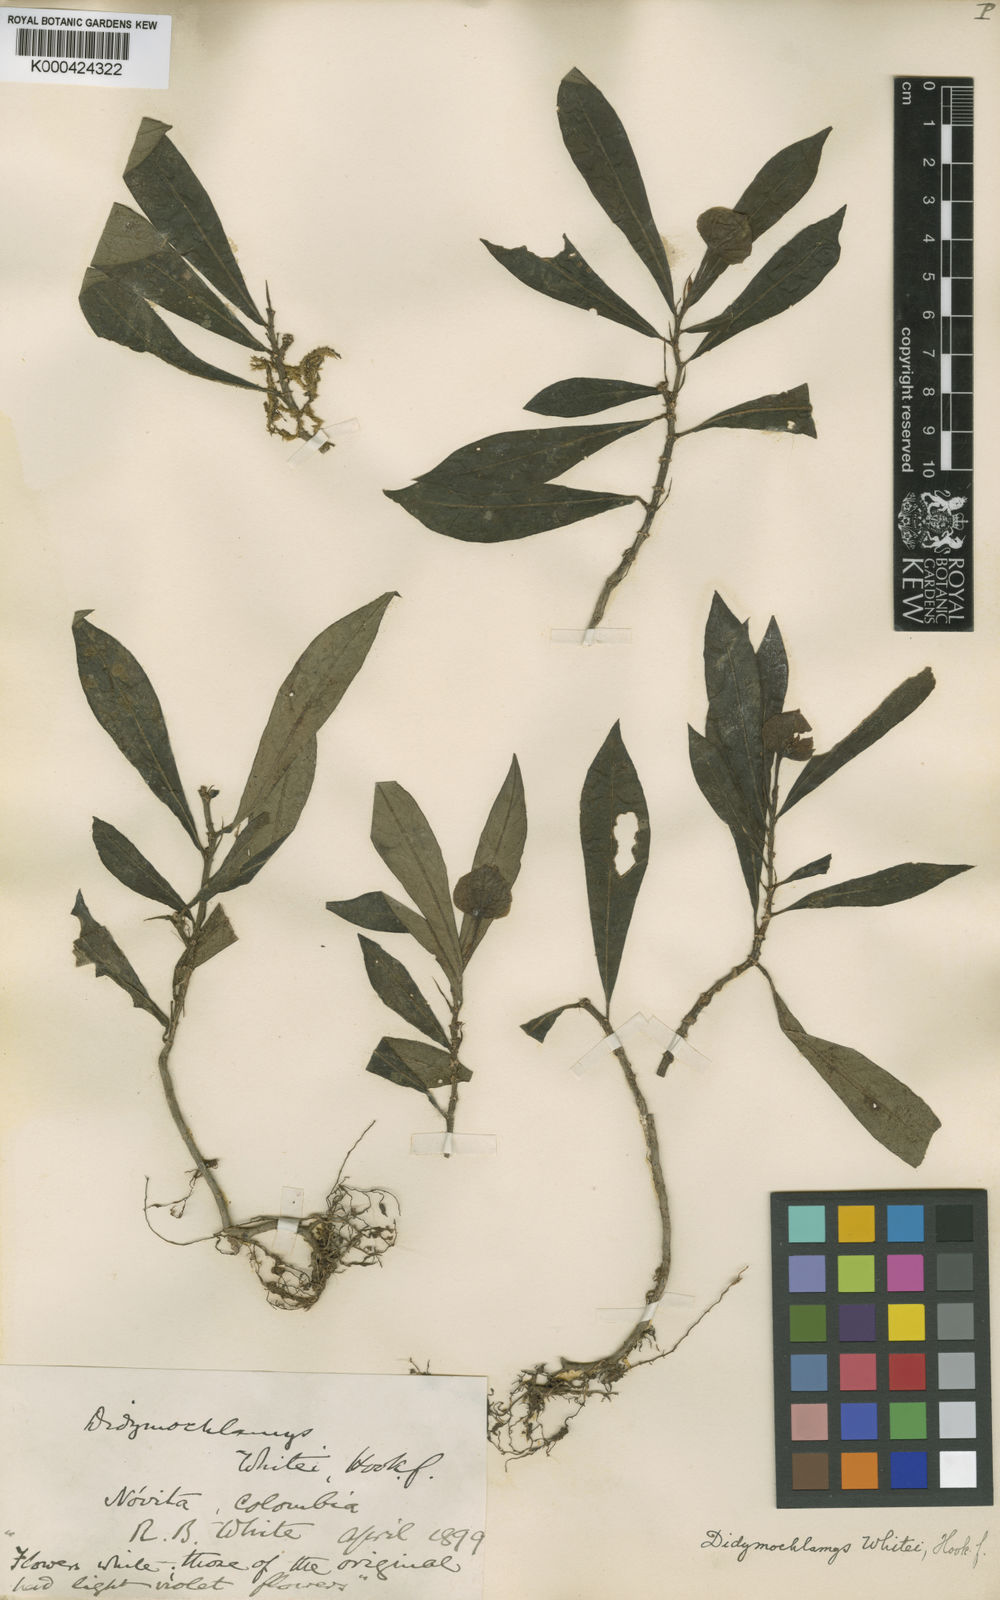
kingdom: Plantae
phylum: Tracheophyta
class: Magnoliopsida
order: Gentianales
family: Rubiaceae
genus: Didymochlamys
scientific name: Didymochlamys whitei
